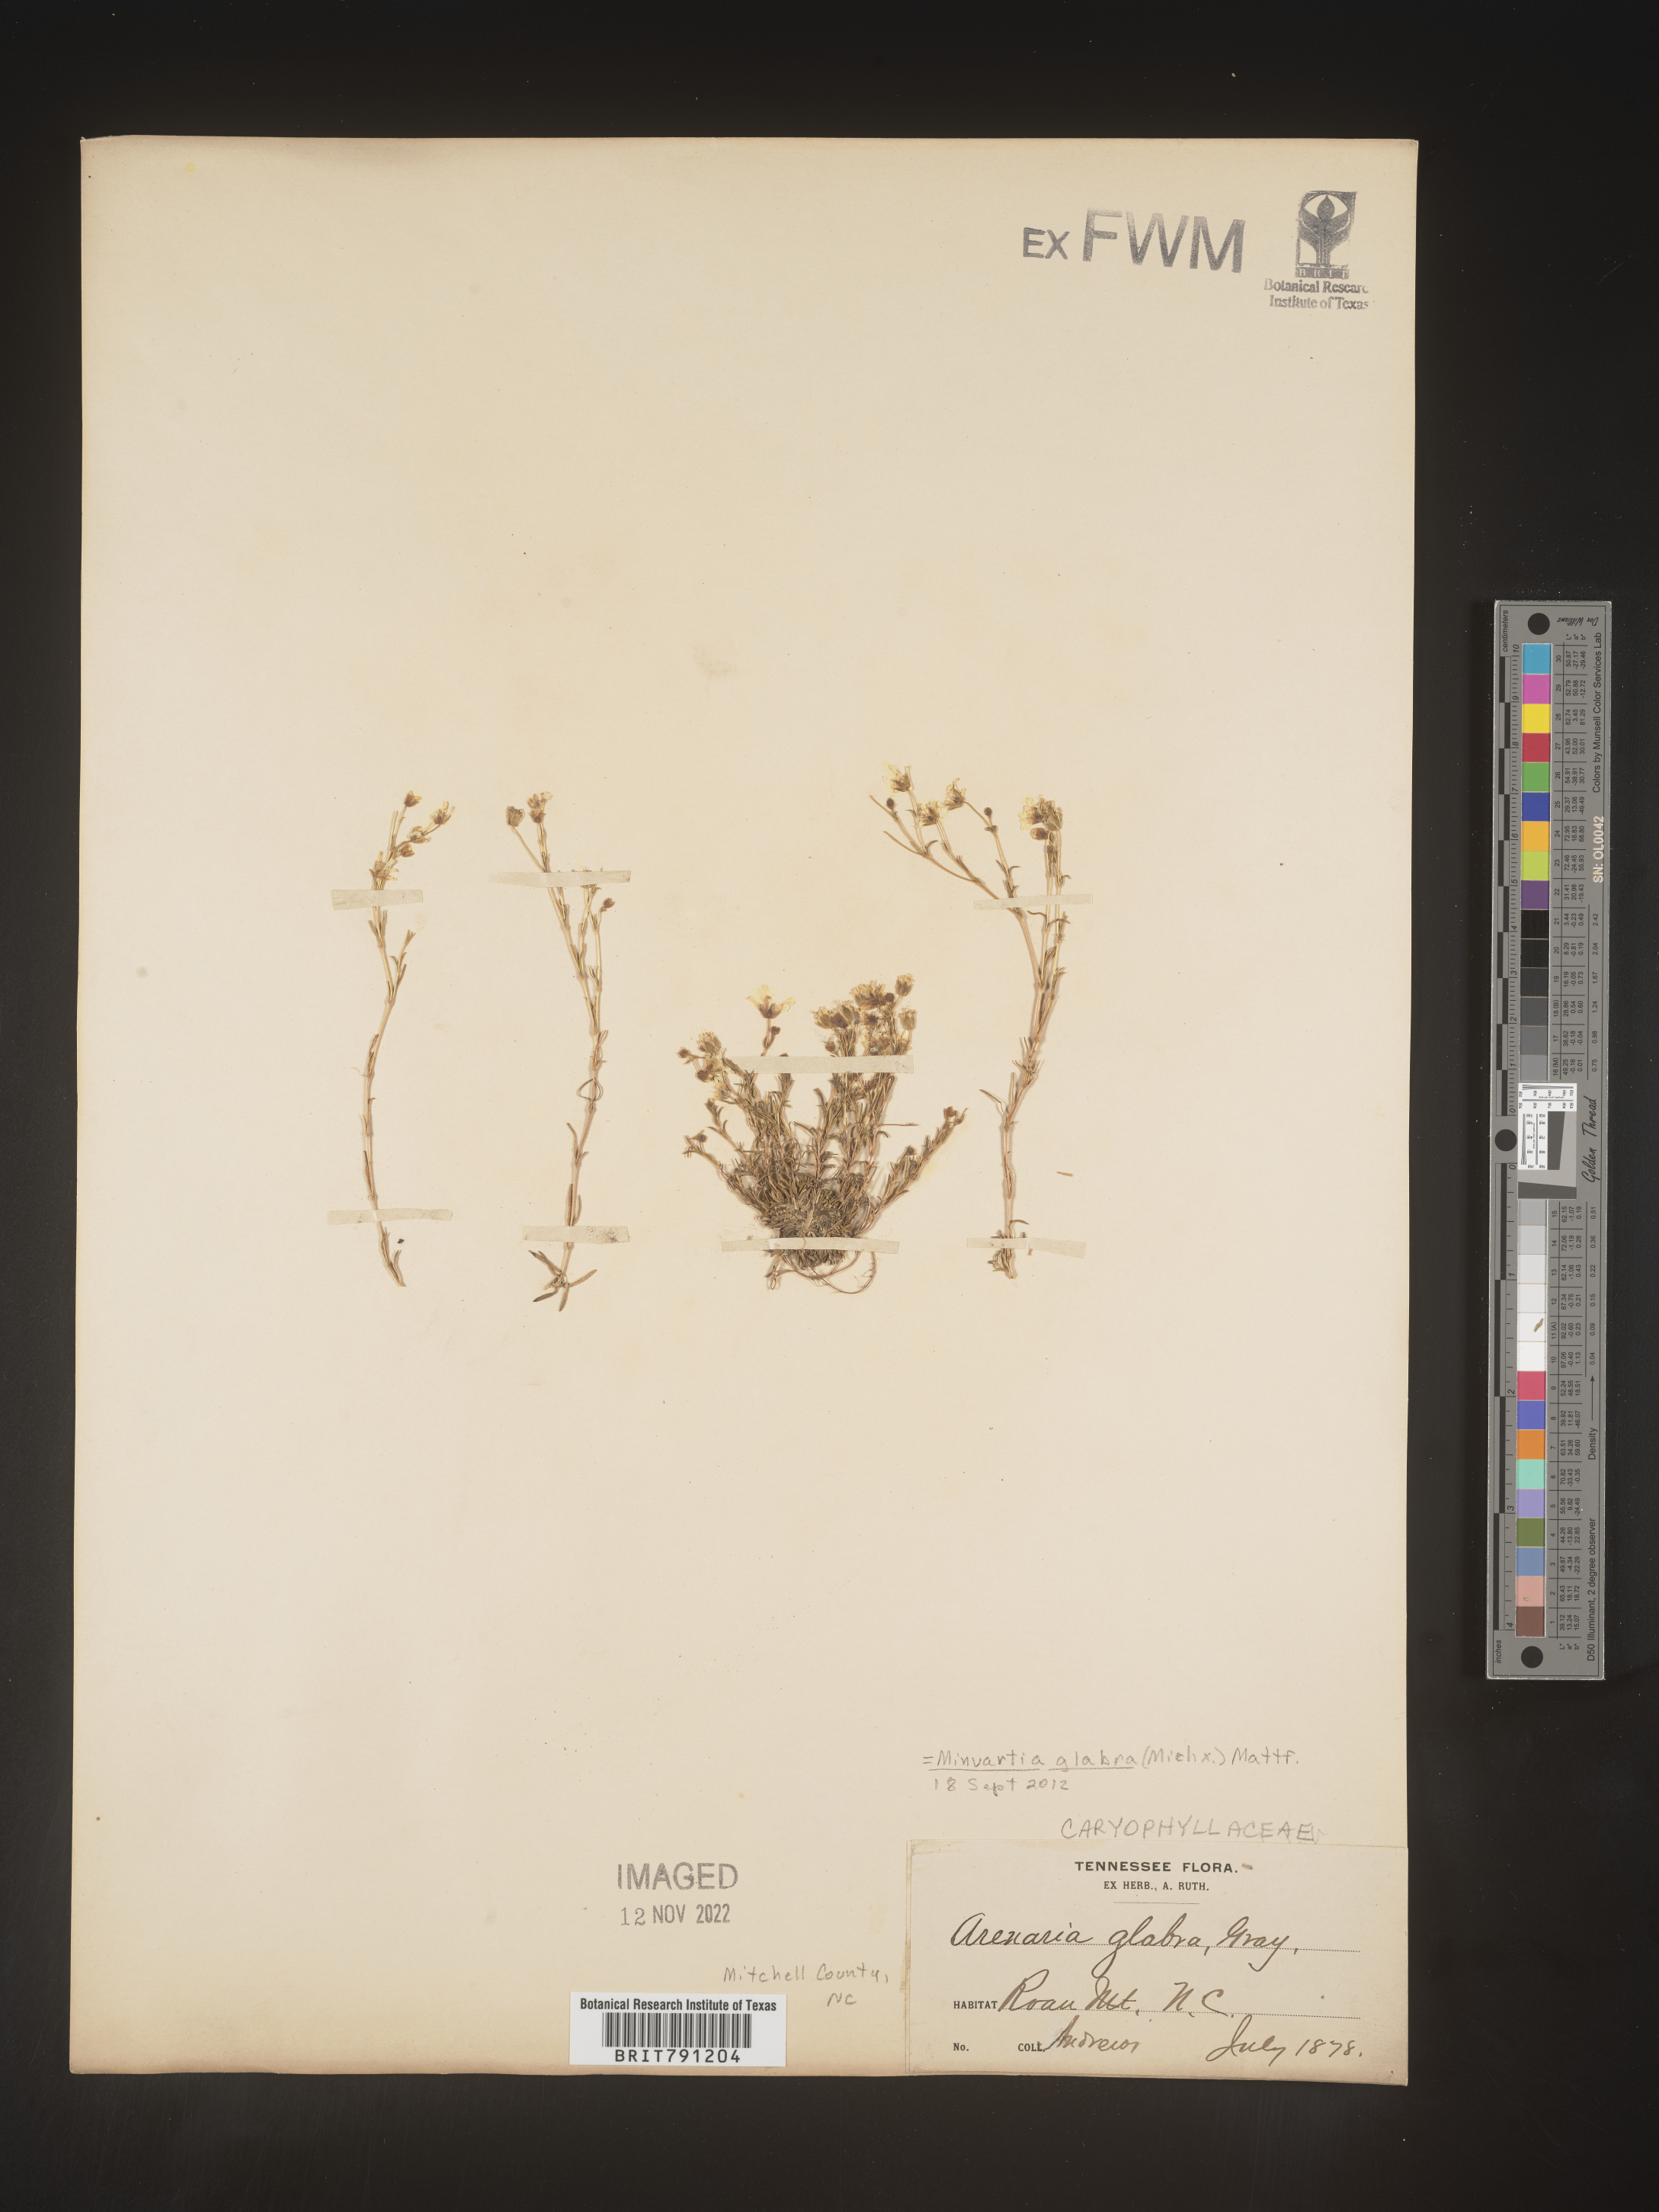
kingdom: Plantae
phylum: Tracheophyta
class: Magnoliopsida
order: Caryophyllales
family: Caryophyllaceae
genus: Geocarpon
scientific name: Geocarpon glabrum
